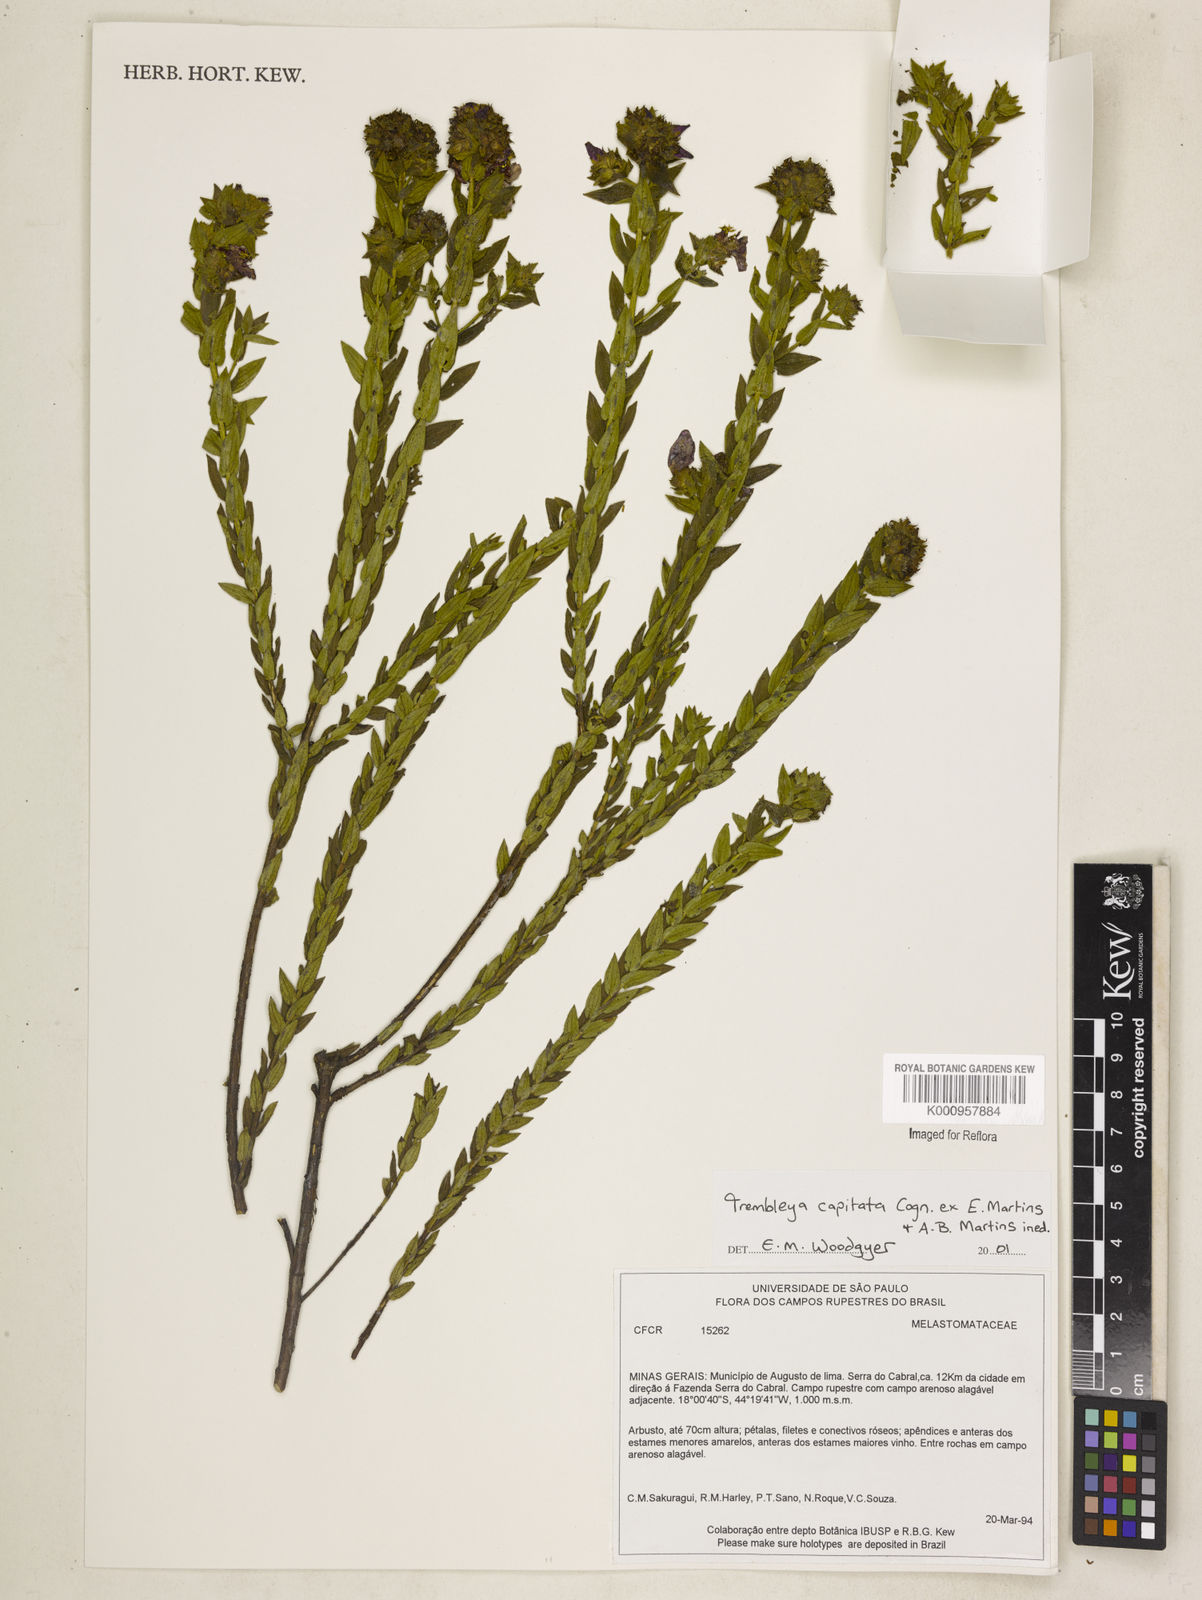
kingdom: Plantae
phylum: Tracheophyta
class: Magnoliopsida
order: Myrtales
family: Melastomataceae
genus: Microlicia
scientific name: Microlicia Trembleya capitata
